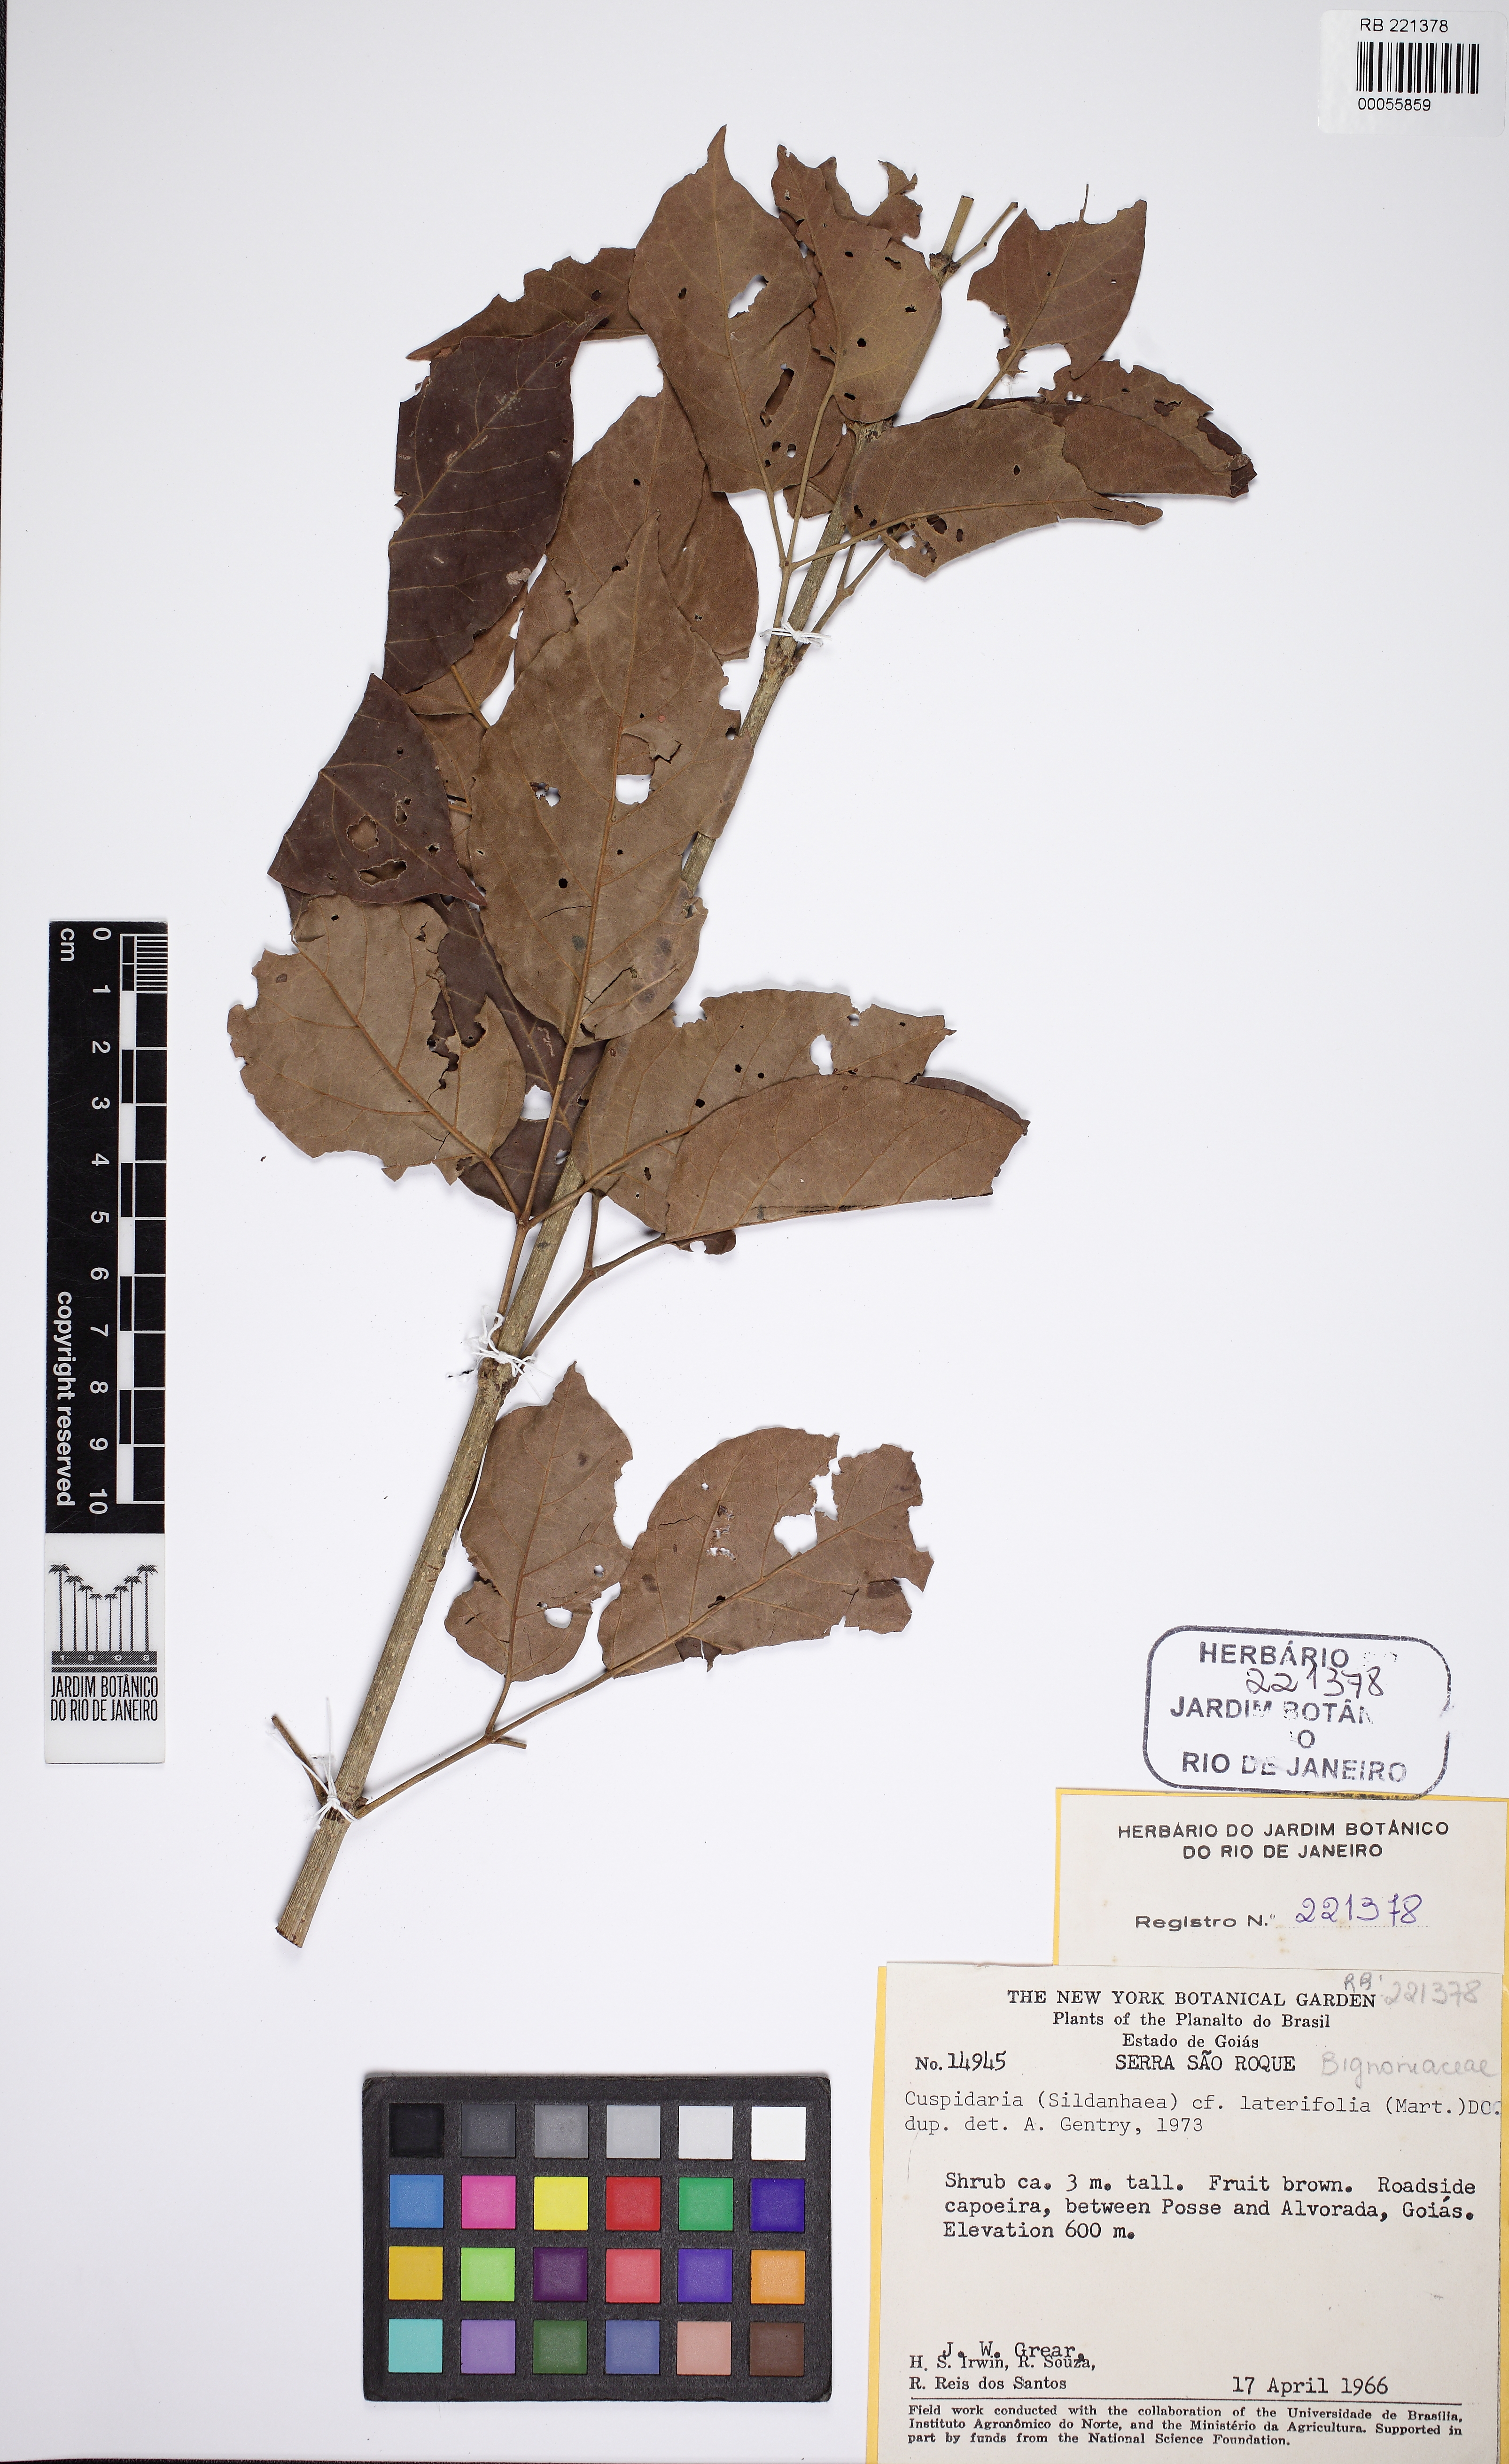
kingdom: Plantae
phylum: Tracheophyta
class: Magnoliopsida
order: Lamiales
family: Bignoniaceae
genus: Cuspidaria
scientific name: Cuspidaria
